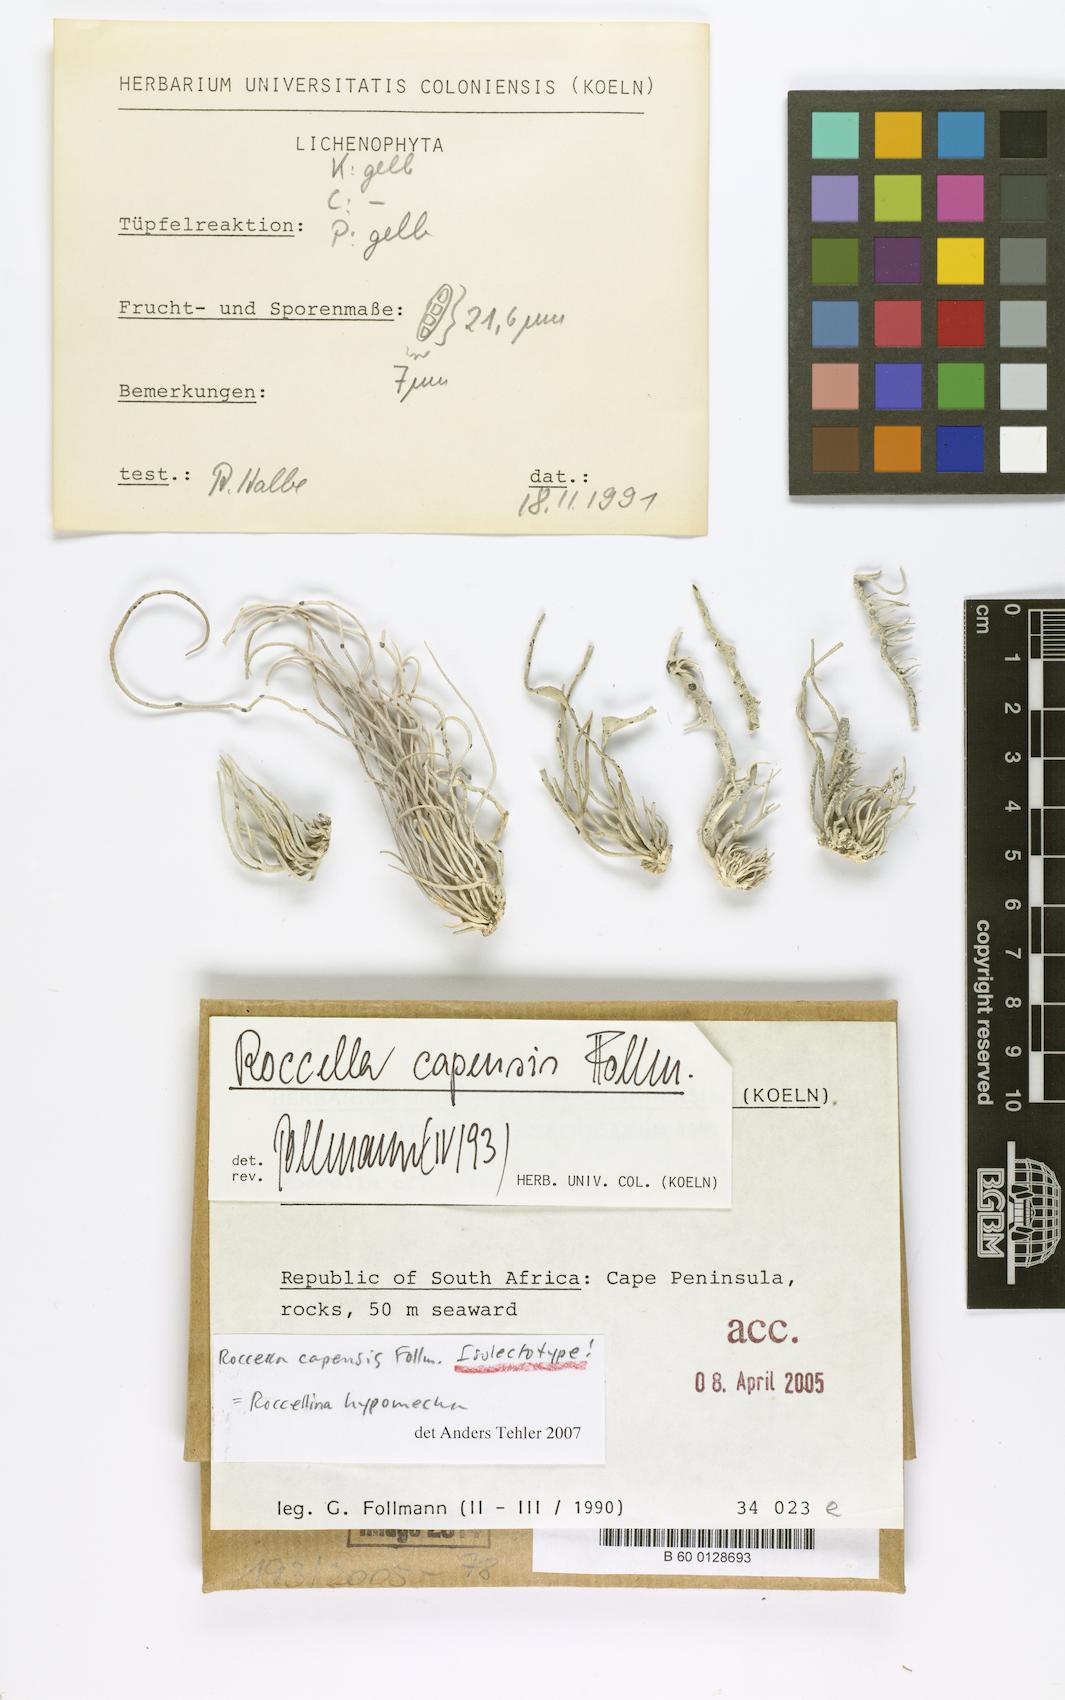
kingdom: Fungi
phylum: Ascomycota
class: Arthoniomycetes
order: Arthoniales
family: Roccellaceae
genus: Roccellina
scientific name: Roccellina capensis
